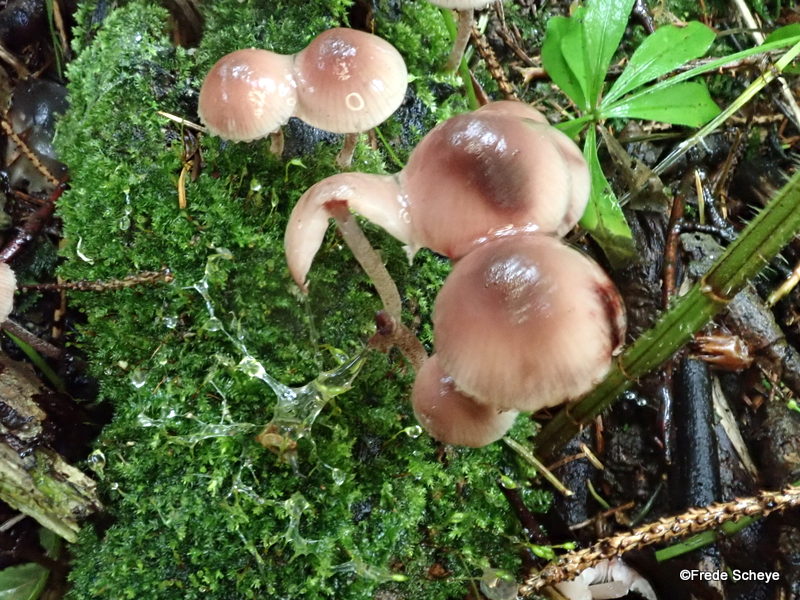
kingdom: Fungi
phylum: Basidiomycota
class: Agaricomycetes
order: Agaricales
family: Mycenaceae
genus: Mycena
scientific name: Mycena haematopus
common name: blødende huesvamp
